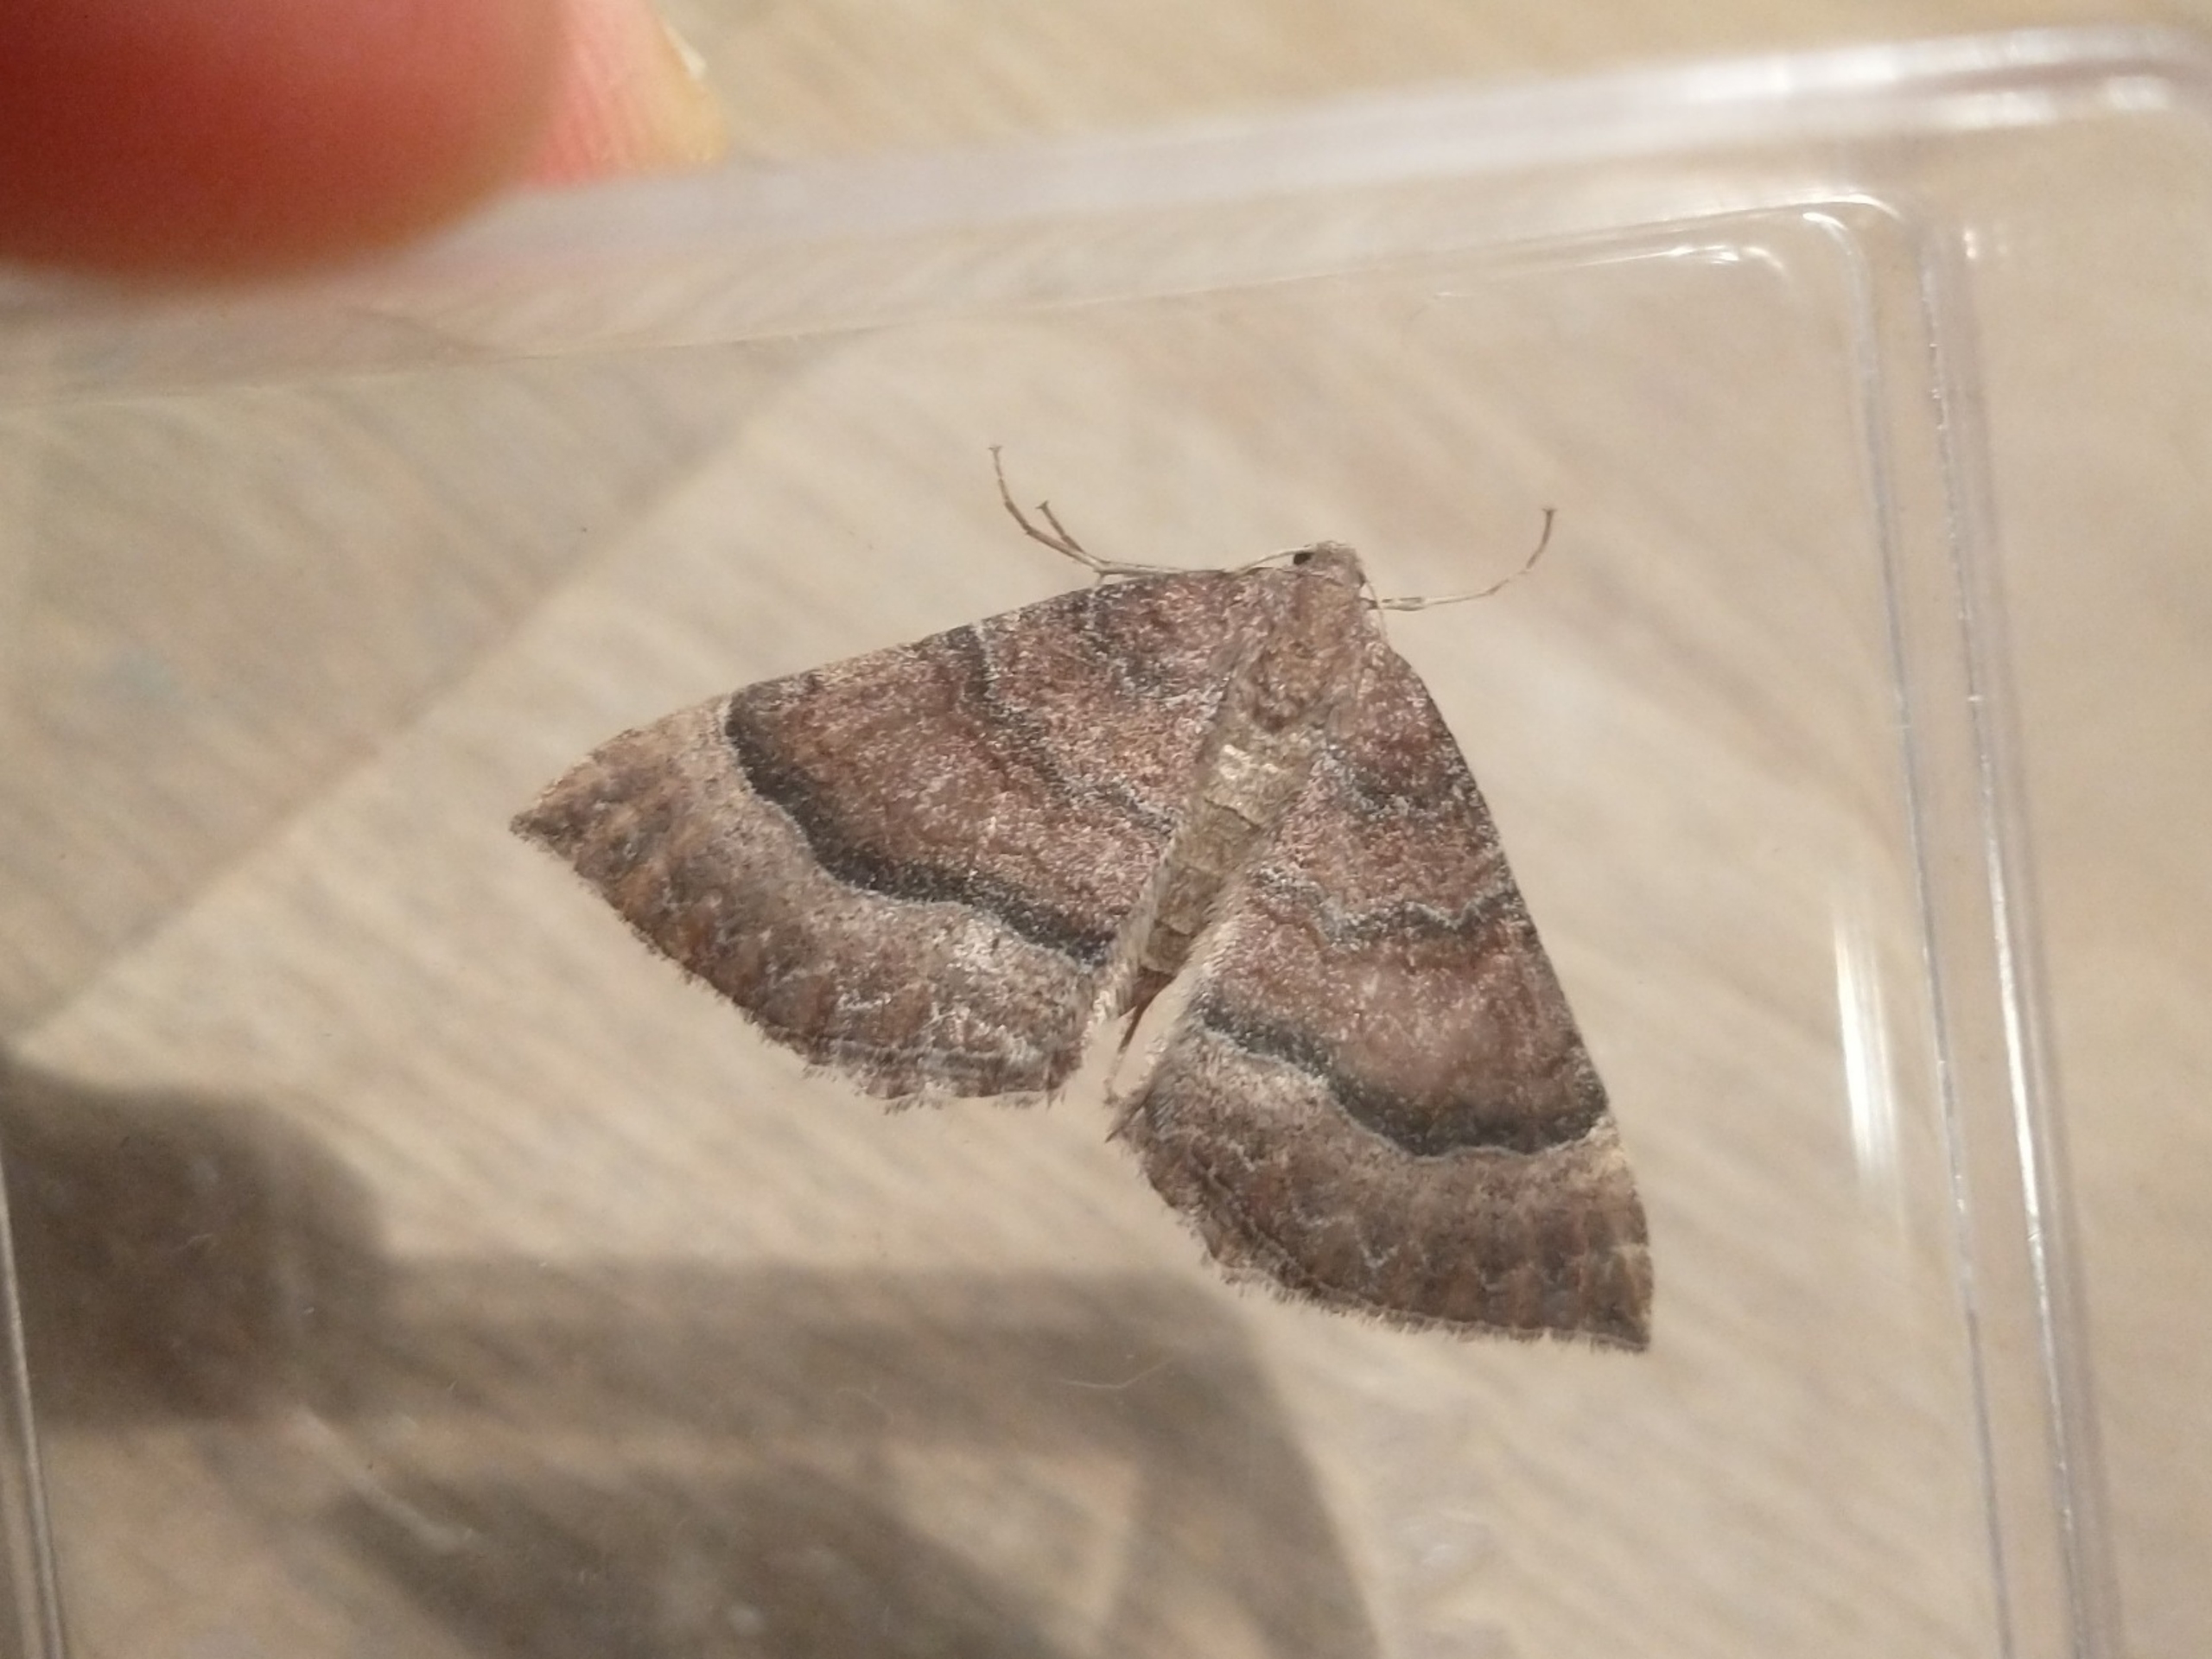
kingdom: Animalia
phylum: Arthropoda
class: Insecta
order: Lepidoptera
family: Geometridae
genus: Larentia
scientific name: Larentia clavaria
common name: Katostmåler
